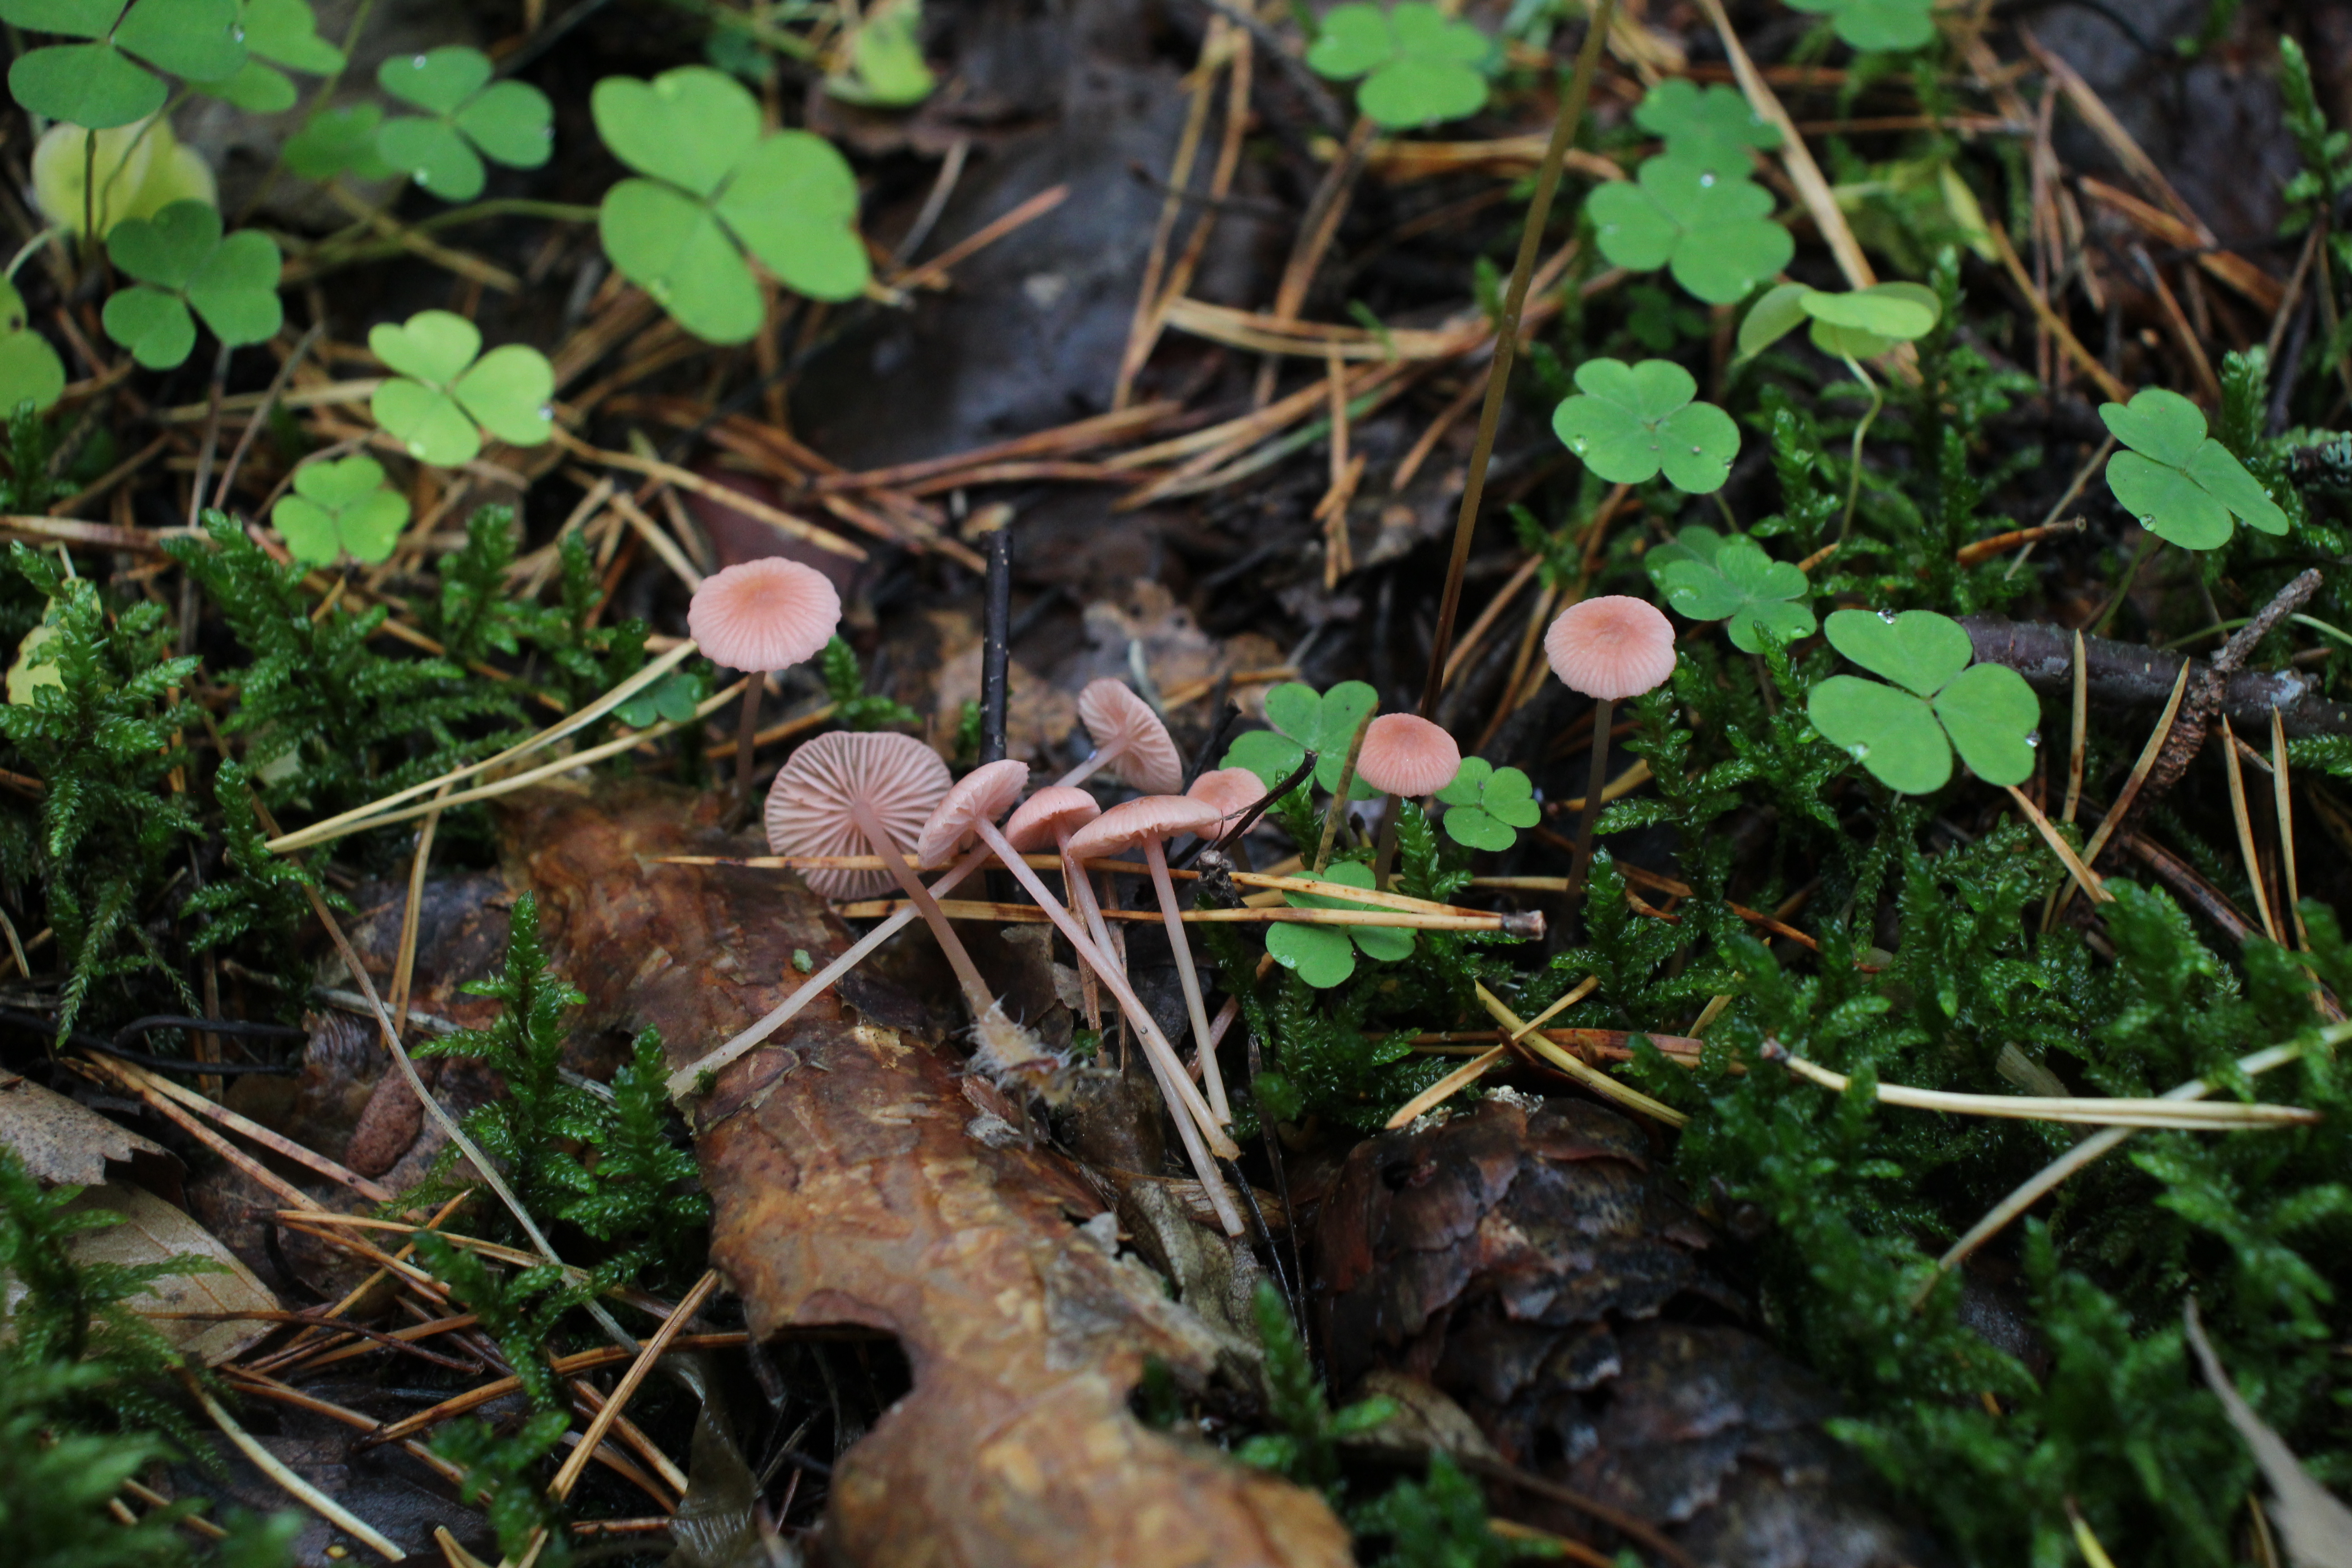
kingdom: Fungi
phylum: Basidiomycota
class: Agaricomycetes
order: Agaricales
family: Mycenaceae
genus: Mycena
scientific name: Mycena rosella
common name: Pink bonnet
